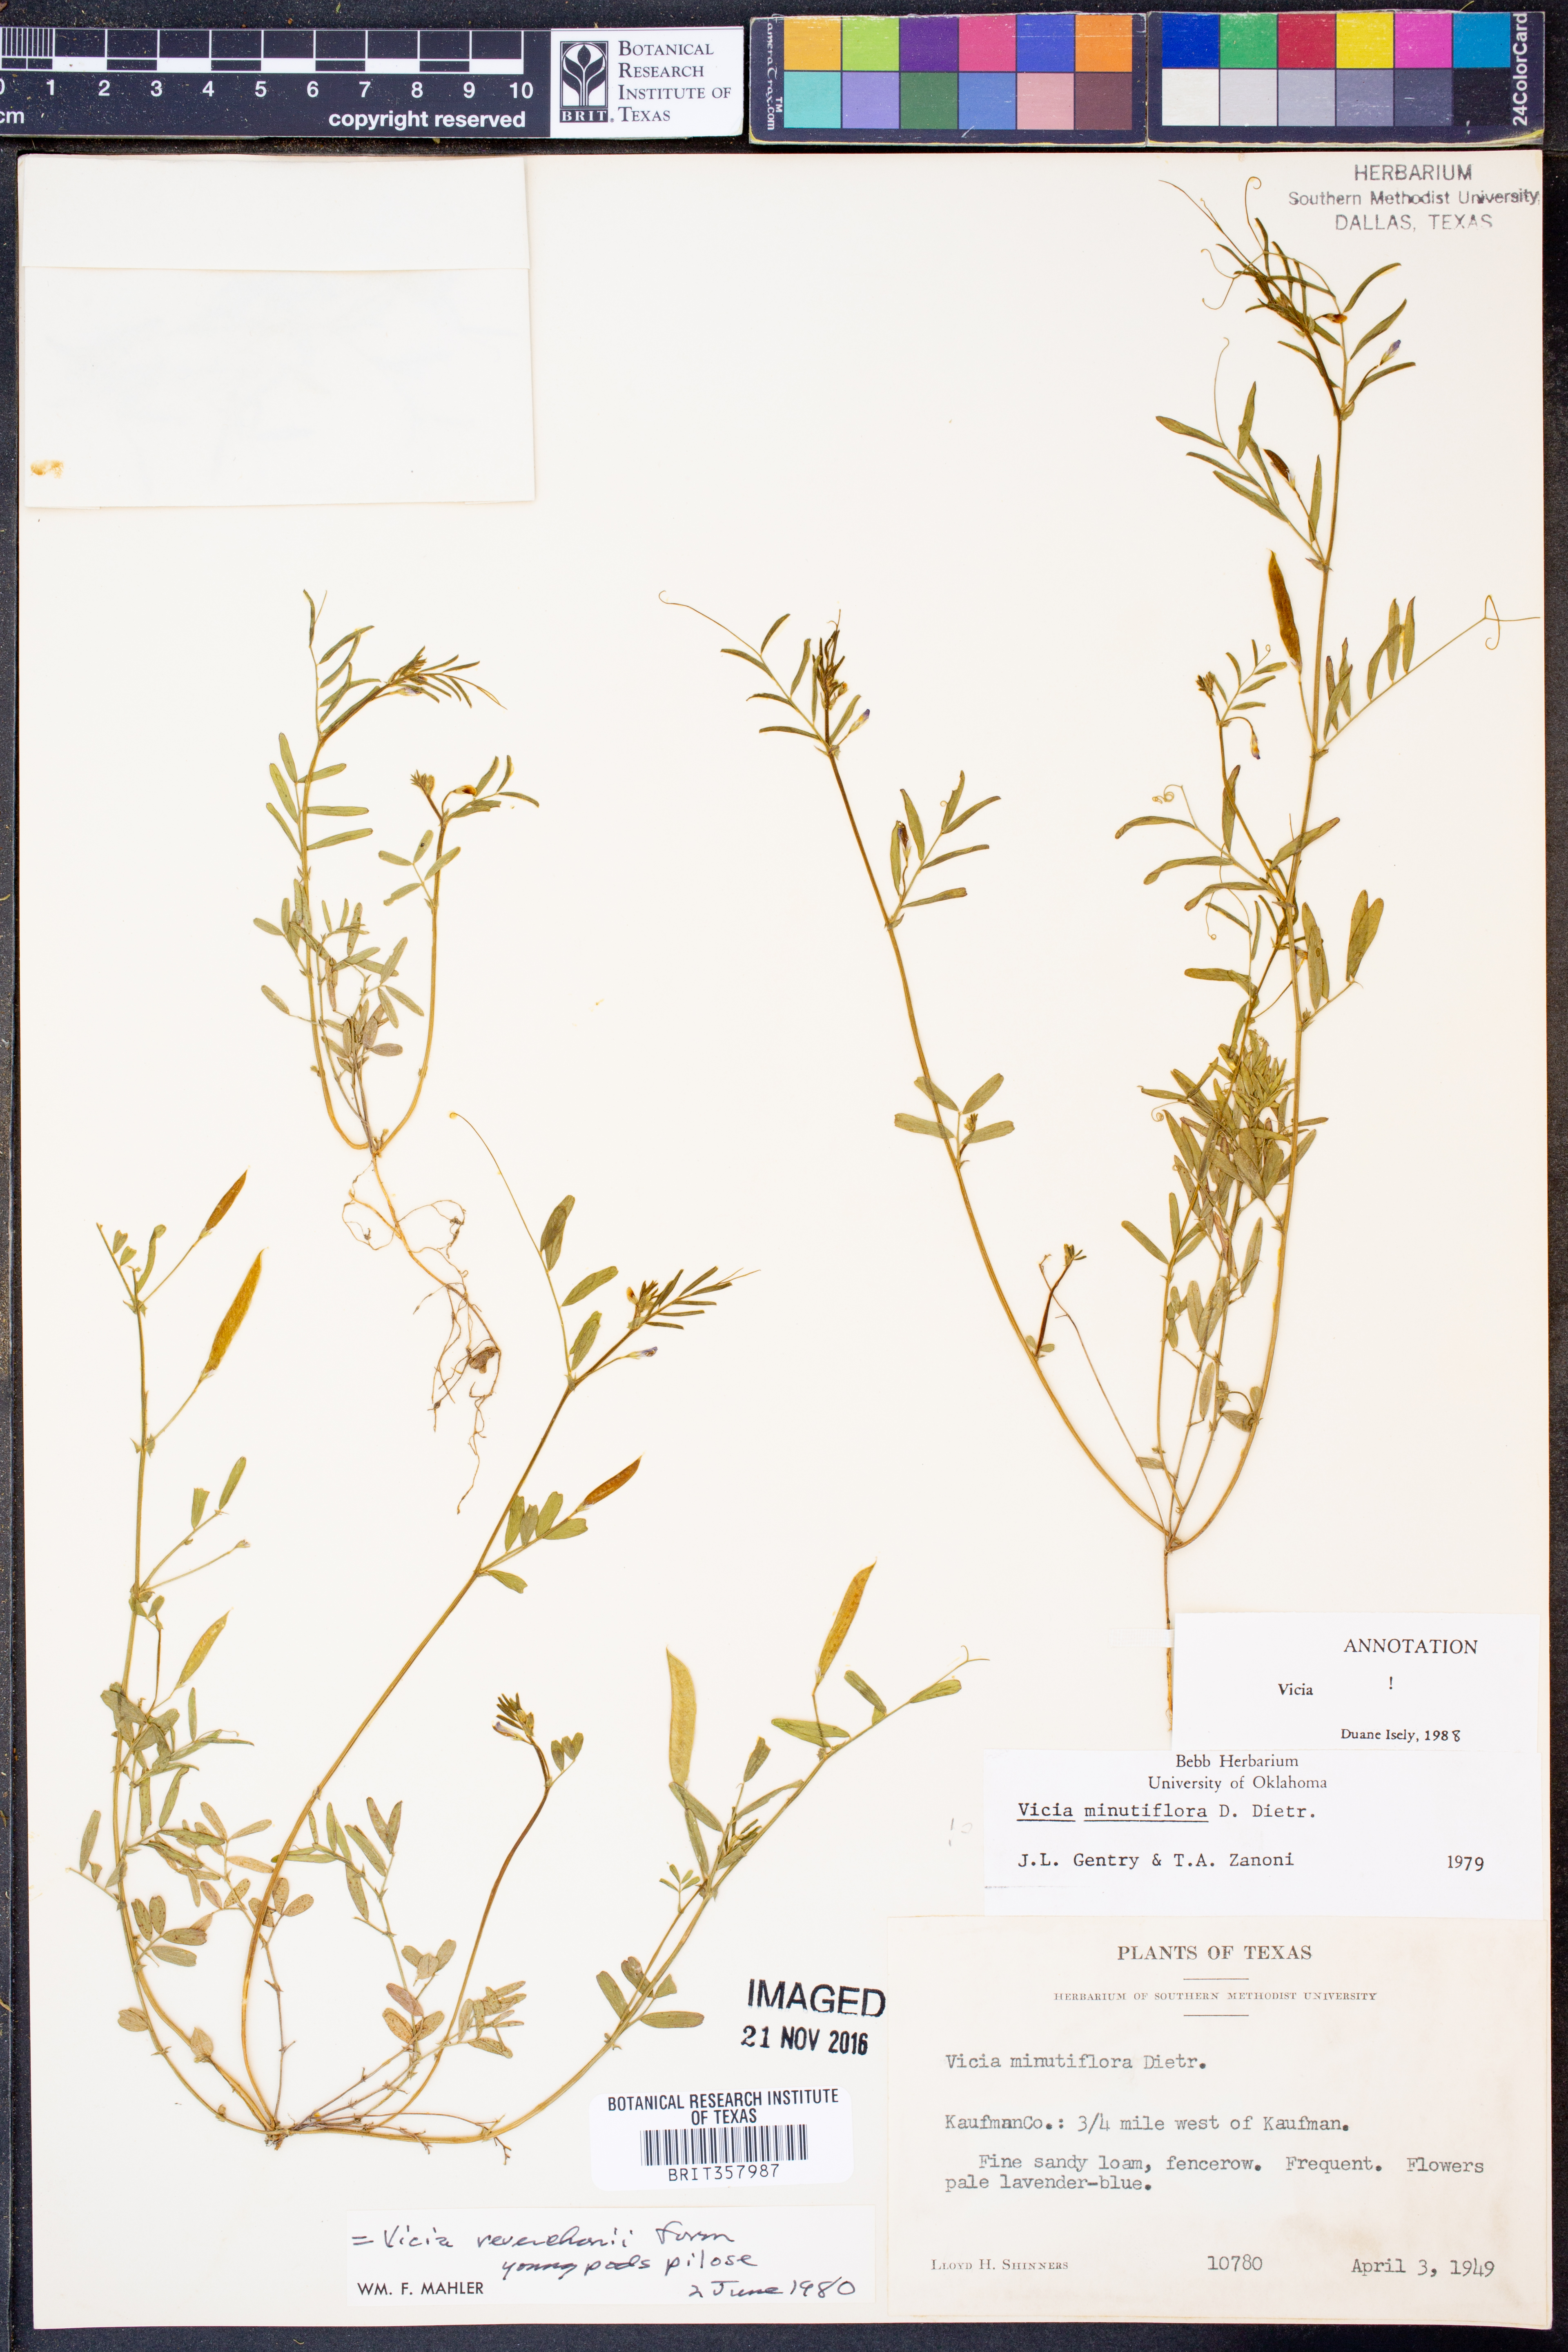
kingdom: Plantae
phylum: Tracheophyta
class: Magnoliopsida
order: Fabales
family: Fabaceae
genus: Vicia
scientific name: Vicia minutiflora
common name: Pygmy-flower vetch
